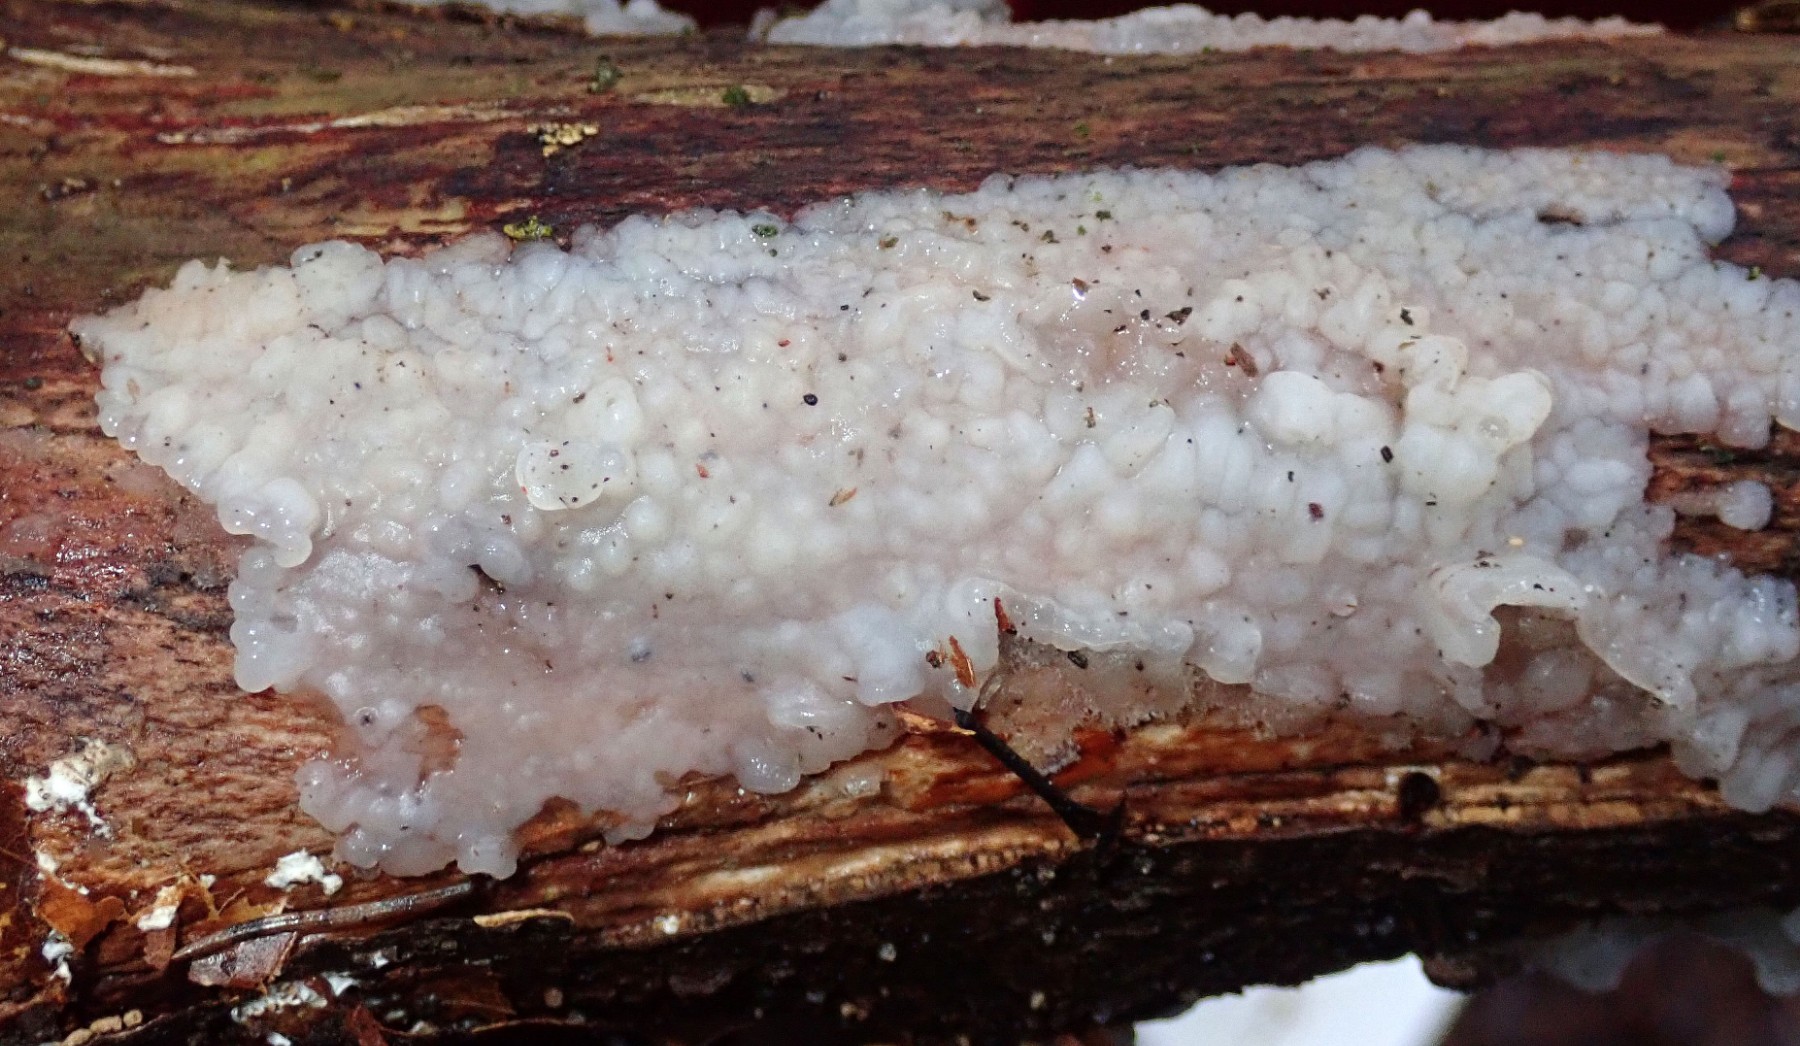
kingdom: Fungi
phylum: Basidiomycota
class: Agaricomycetes
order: Auriculariales
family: Auriculariaceae
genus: Exidia
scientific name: Exidia thuretiana
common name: hvidlig bævretop
